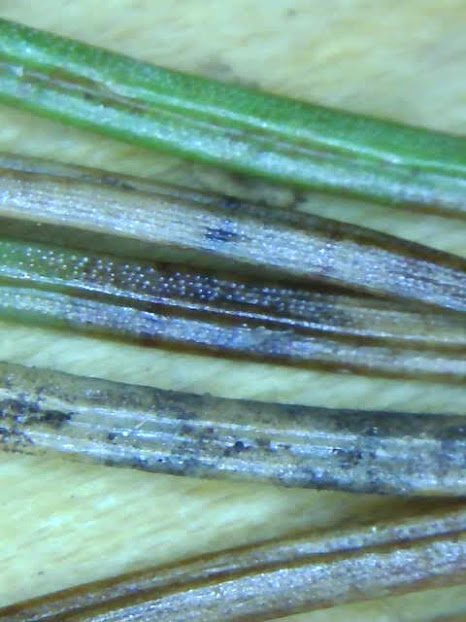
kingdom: Fungi
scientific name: Fungi
